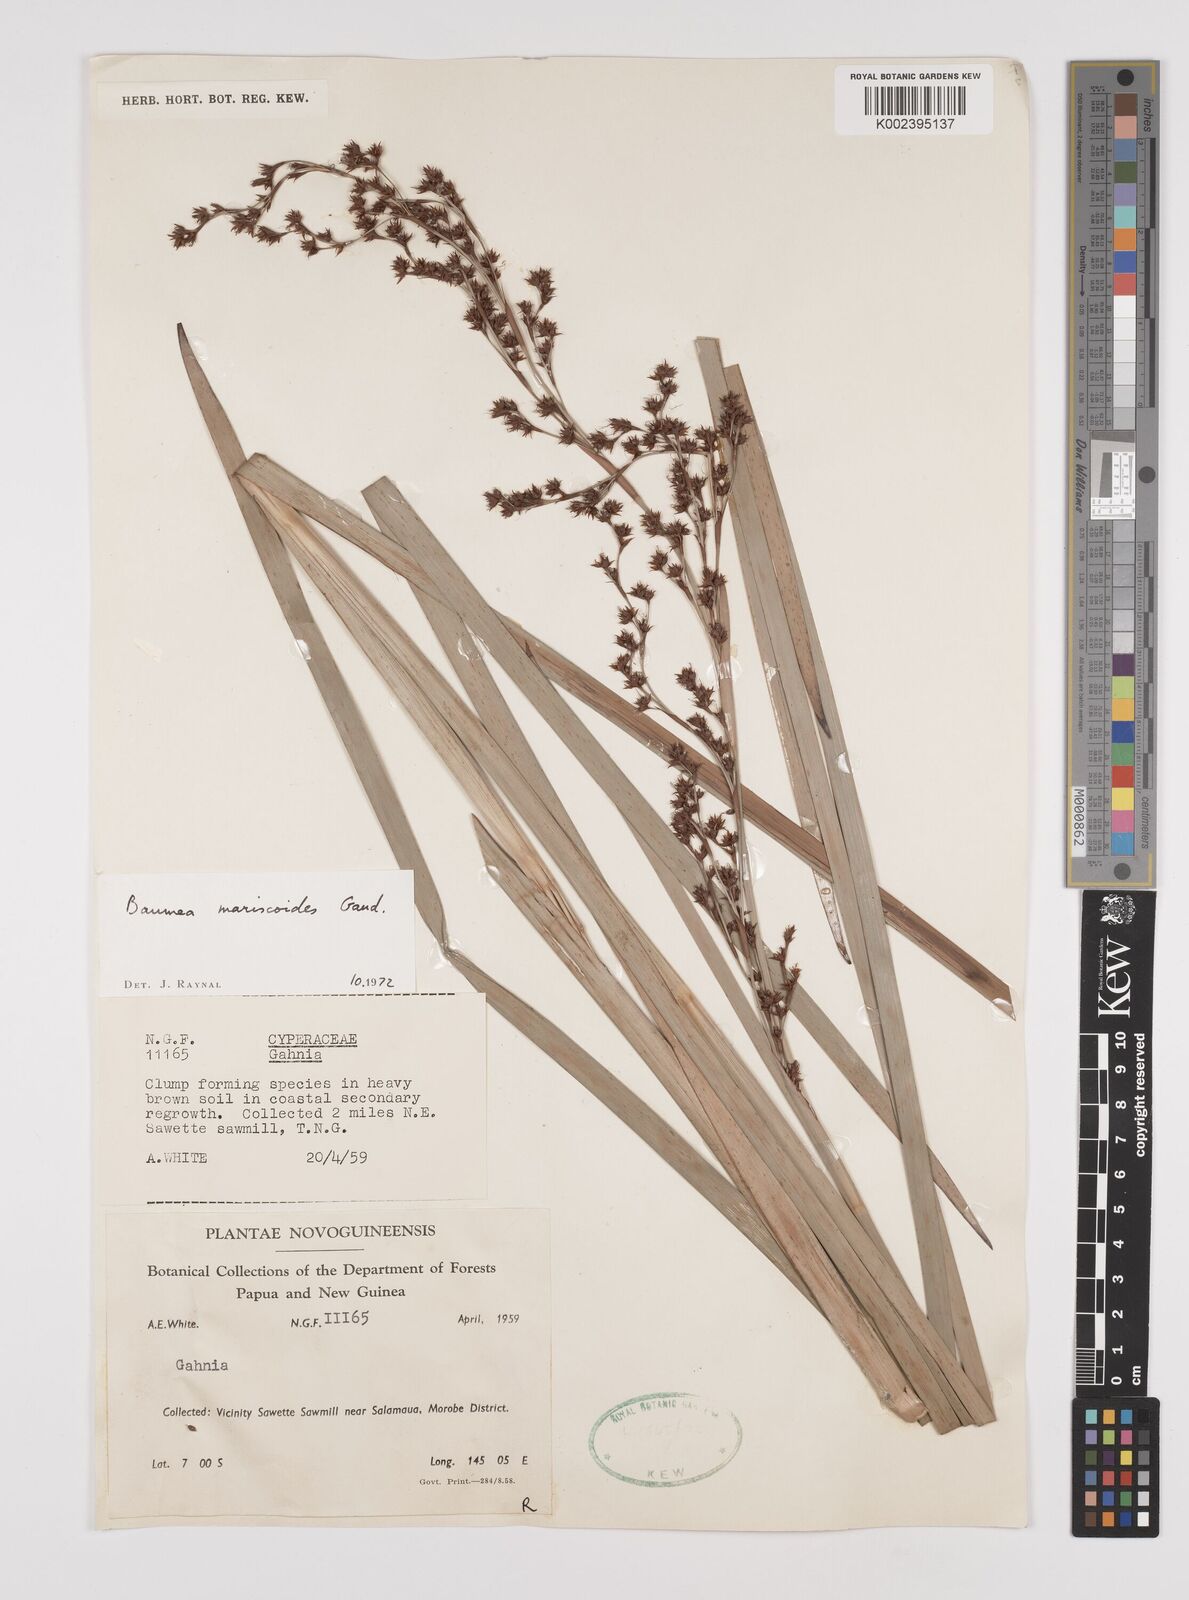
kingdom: Plantae
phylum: Tracheophyta
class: Liliopsida
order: Poales
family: Cyperaceae
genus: Machaerina
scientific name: Machaerina mariscoides
